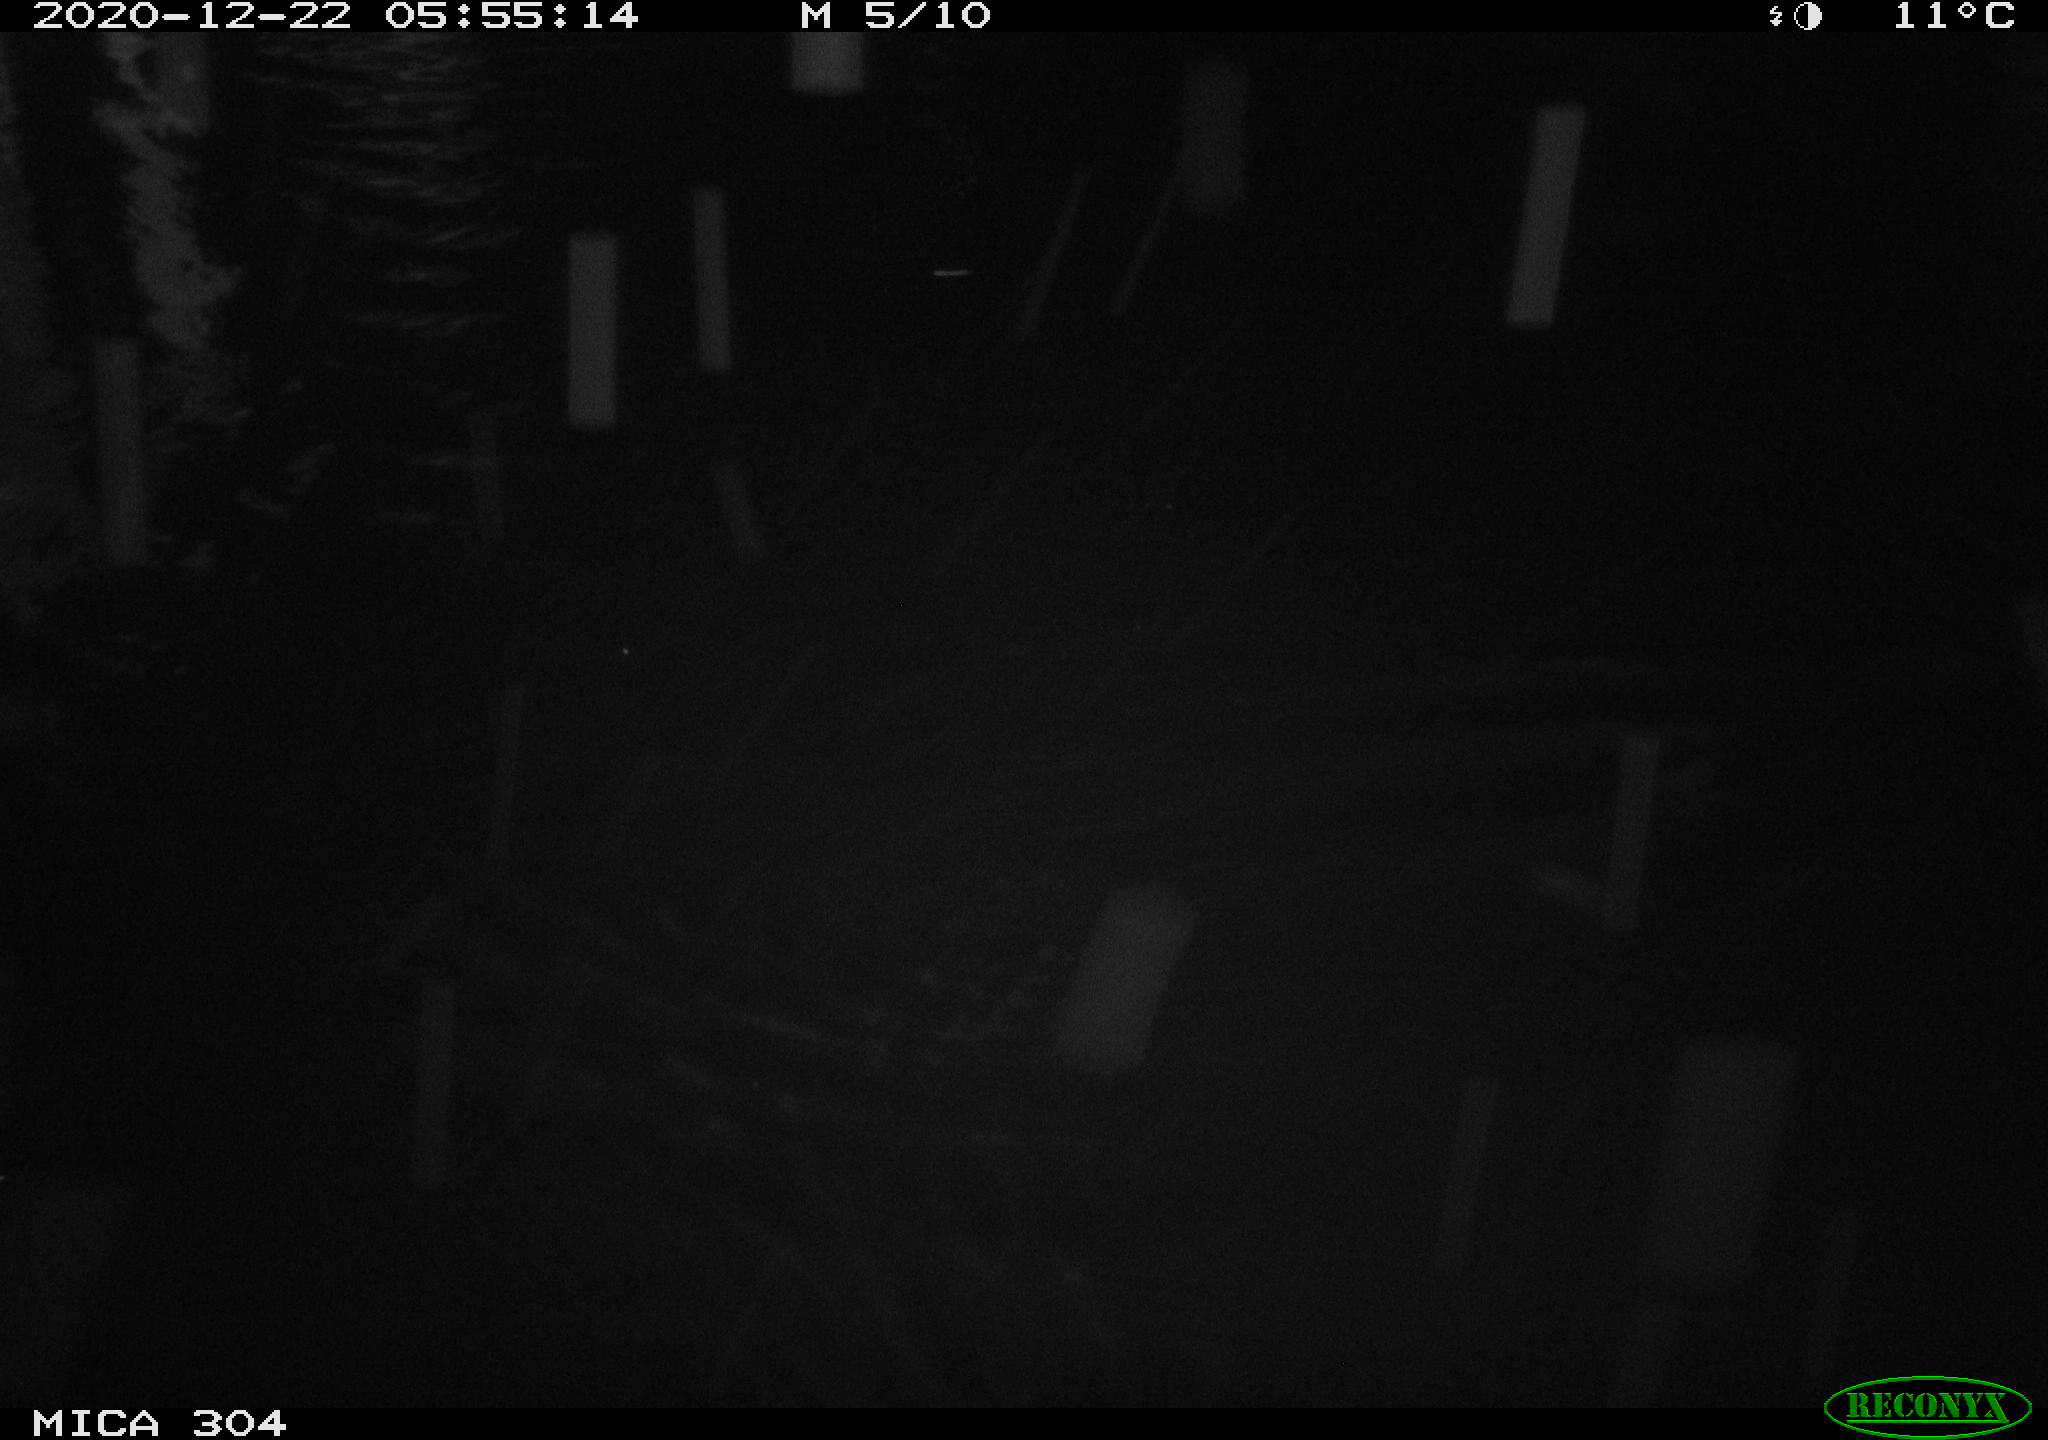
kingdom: Animalia
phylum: Chordata
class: Mammalia
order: Rodentia
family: Muridae
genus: Rattus
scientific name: Rattus norvegicus
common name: Brown rat
